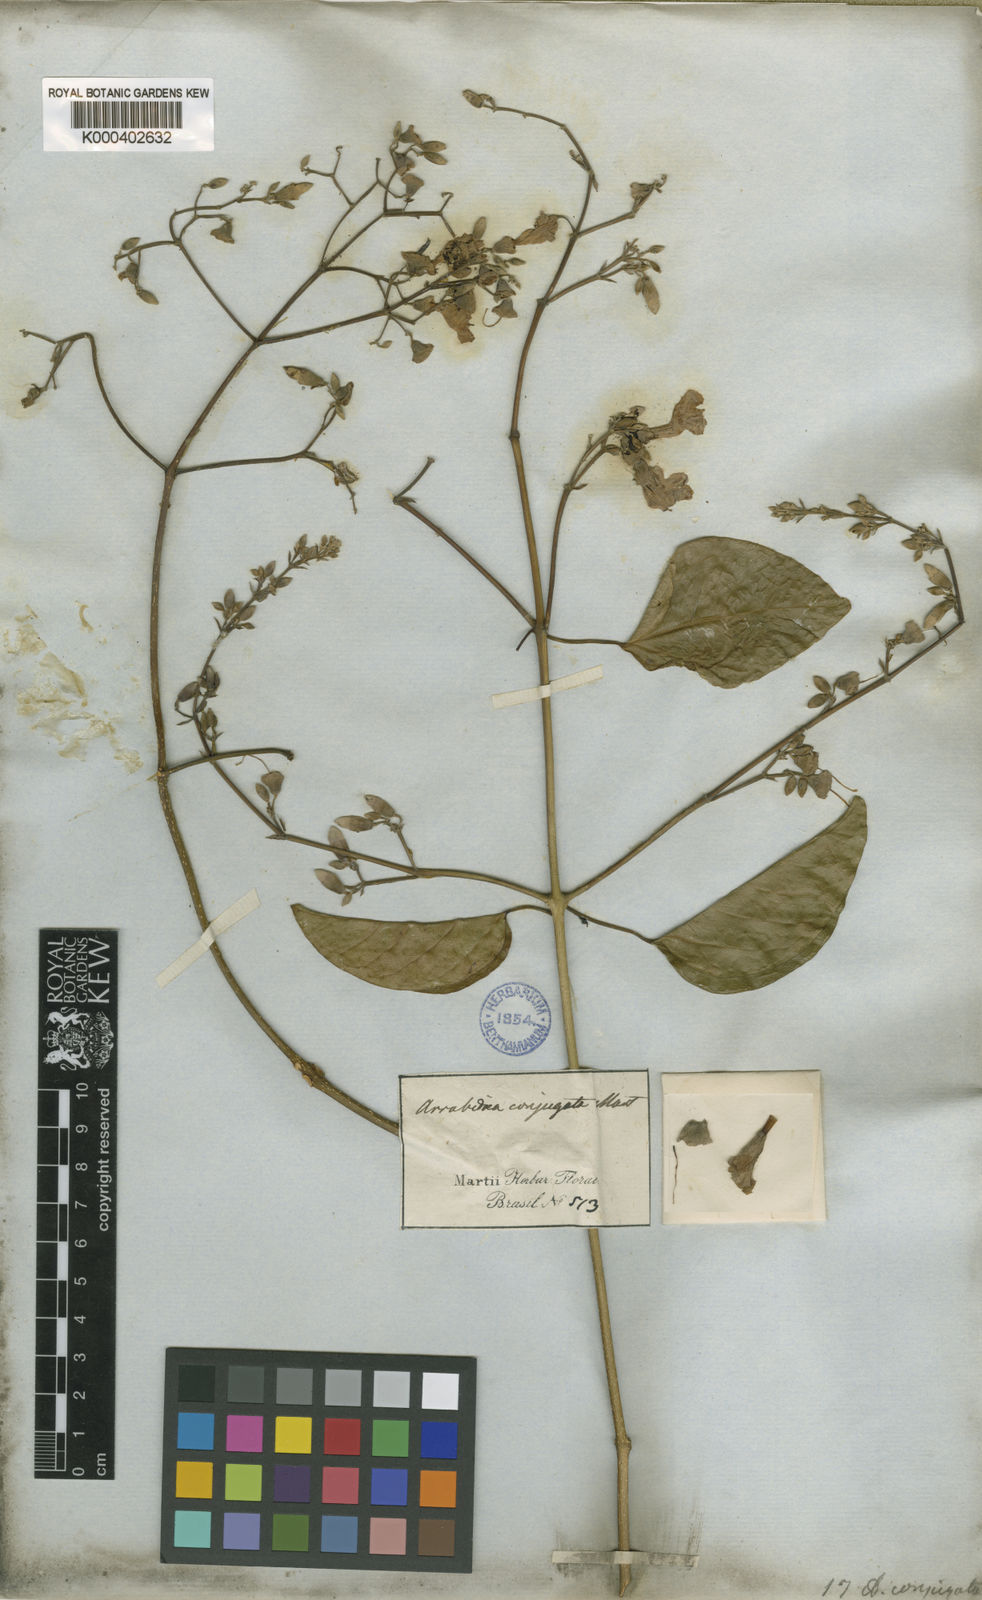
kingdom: Plantae
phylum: Tracheophyta
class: Magnoliopsida
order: Lamiales
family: Bignoniaceae
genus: Fridericia
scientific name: Fridericia conjugata
